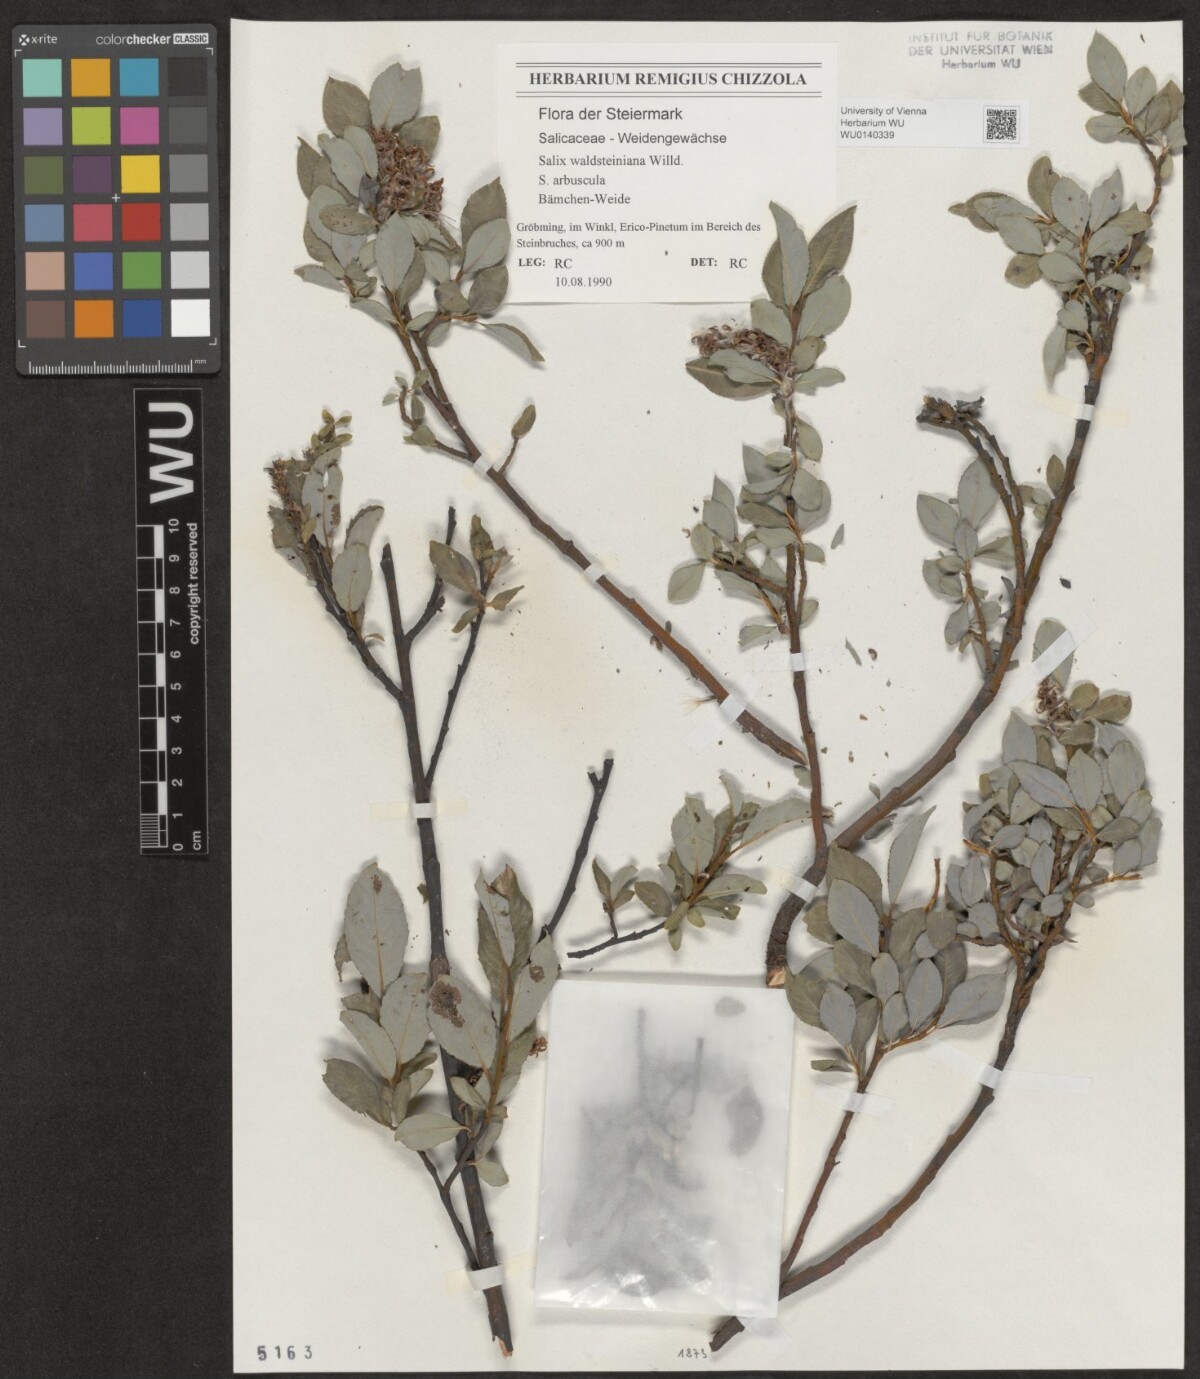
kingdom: Plantae
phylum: Tracheophyta
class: Magnoliopsida
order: Malpighiales
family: Salicaceae
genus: Salix
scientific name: Salix waldsteiniana
